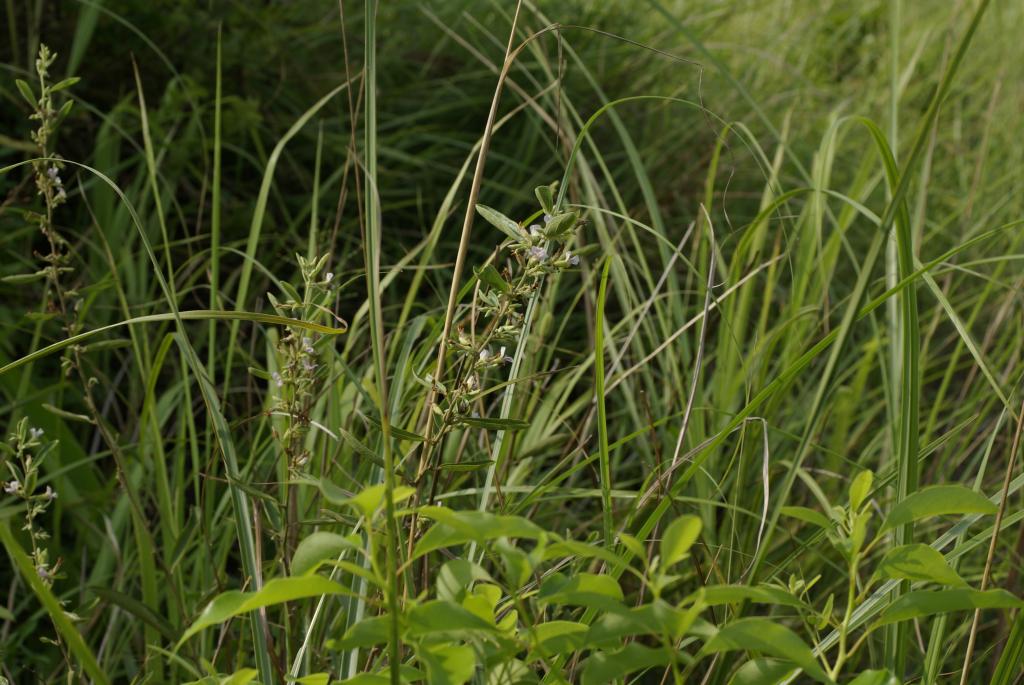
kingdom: Plantae
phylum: Tracheophyta
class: Magnoliopsida
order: Malvales
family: Malvaceae
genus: Helicteres
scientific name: Helicteres augustifolia
